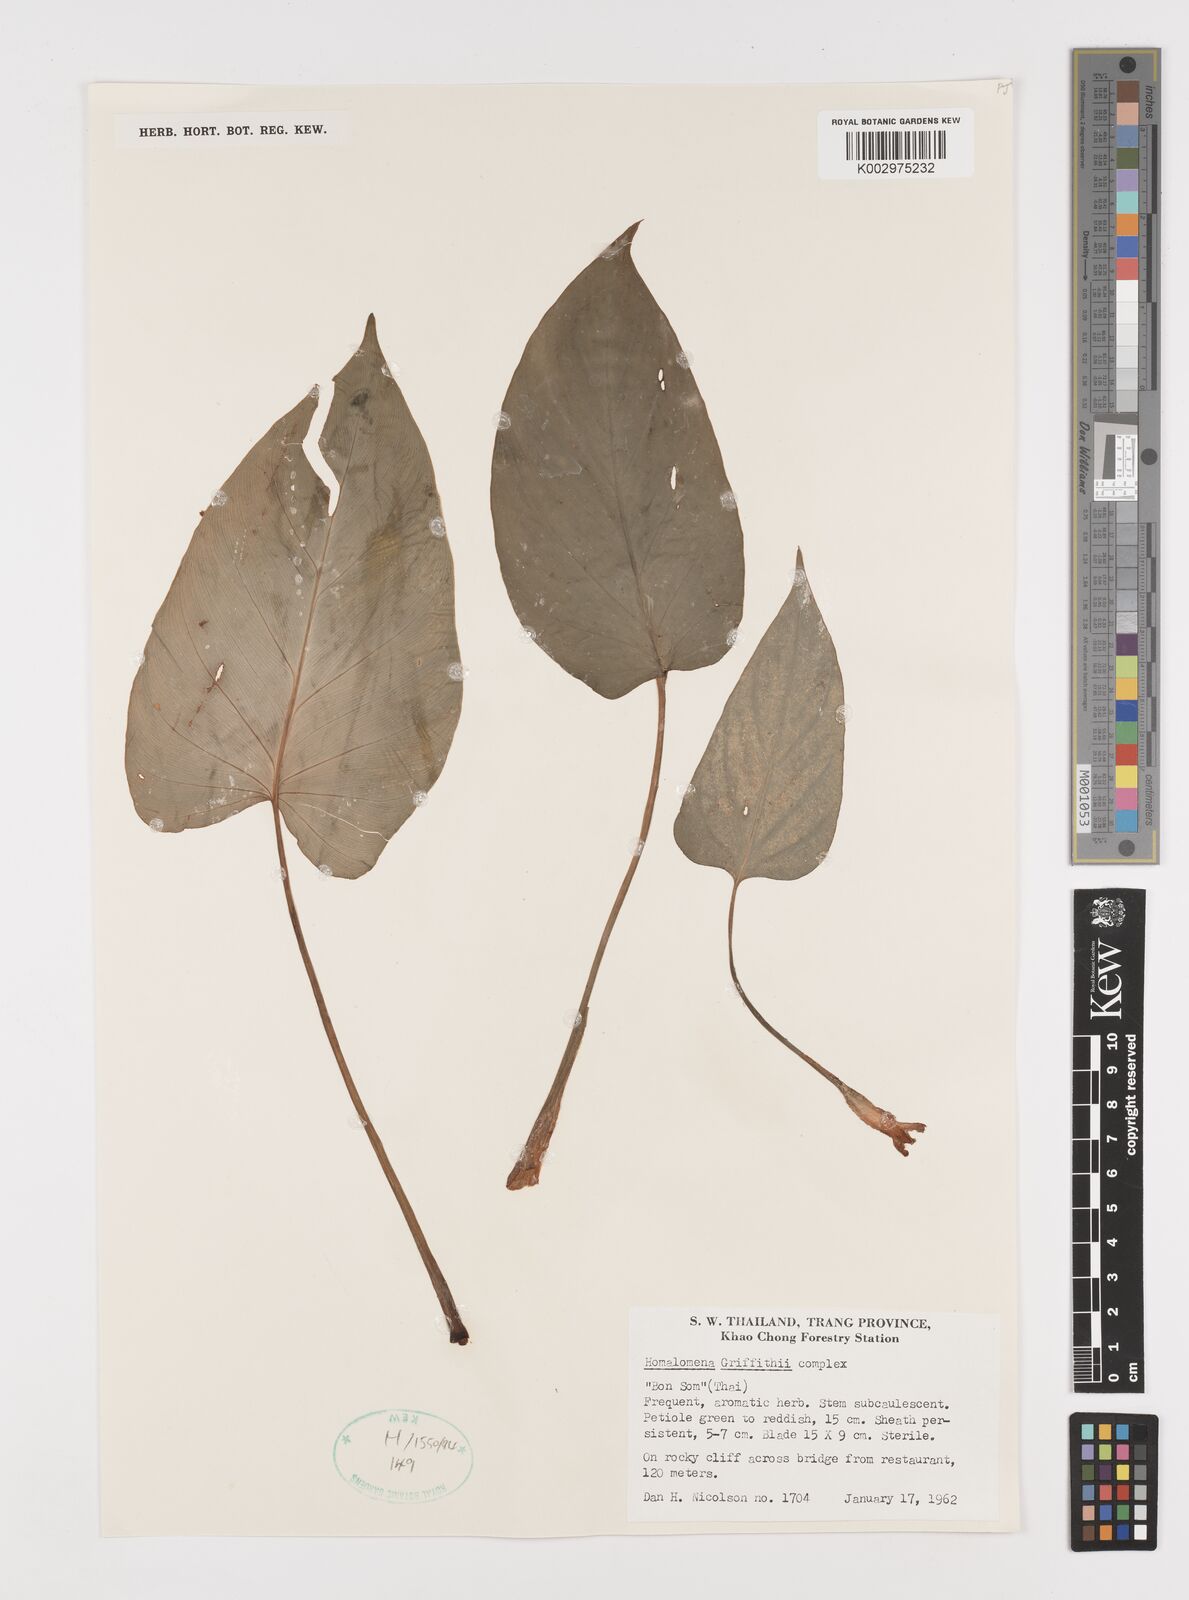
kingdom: Plantae
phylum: Tracheophyta
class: Liliopsida
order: Alismatales
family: Araceae
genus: Homalomena
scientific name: Homalomena griffithii
